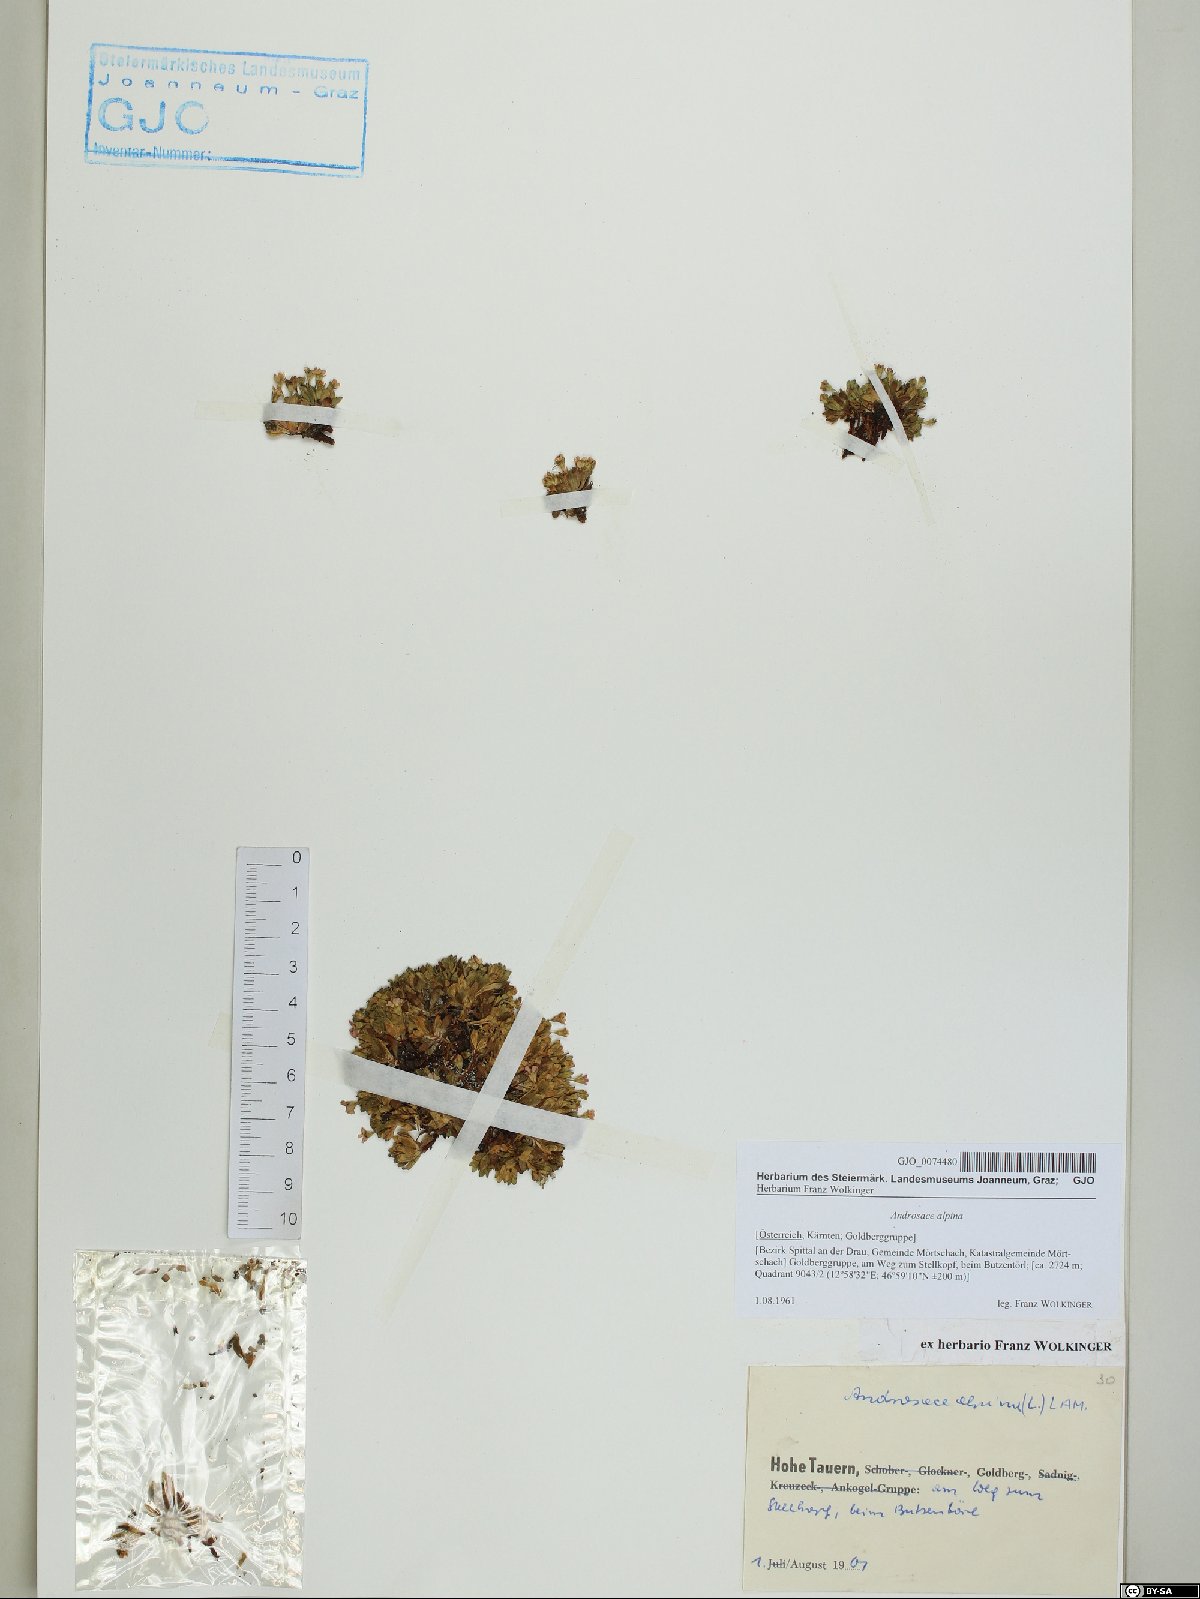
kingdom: Plantae
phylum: Tracheophyta
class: Magnoliopsida
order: Ericales
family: Primulaceae
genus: Androsace
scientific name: Androsace alpina
